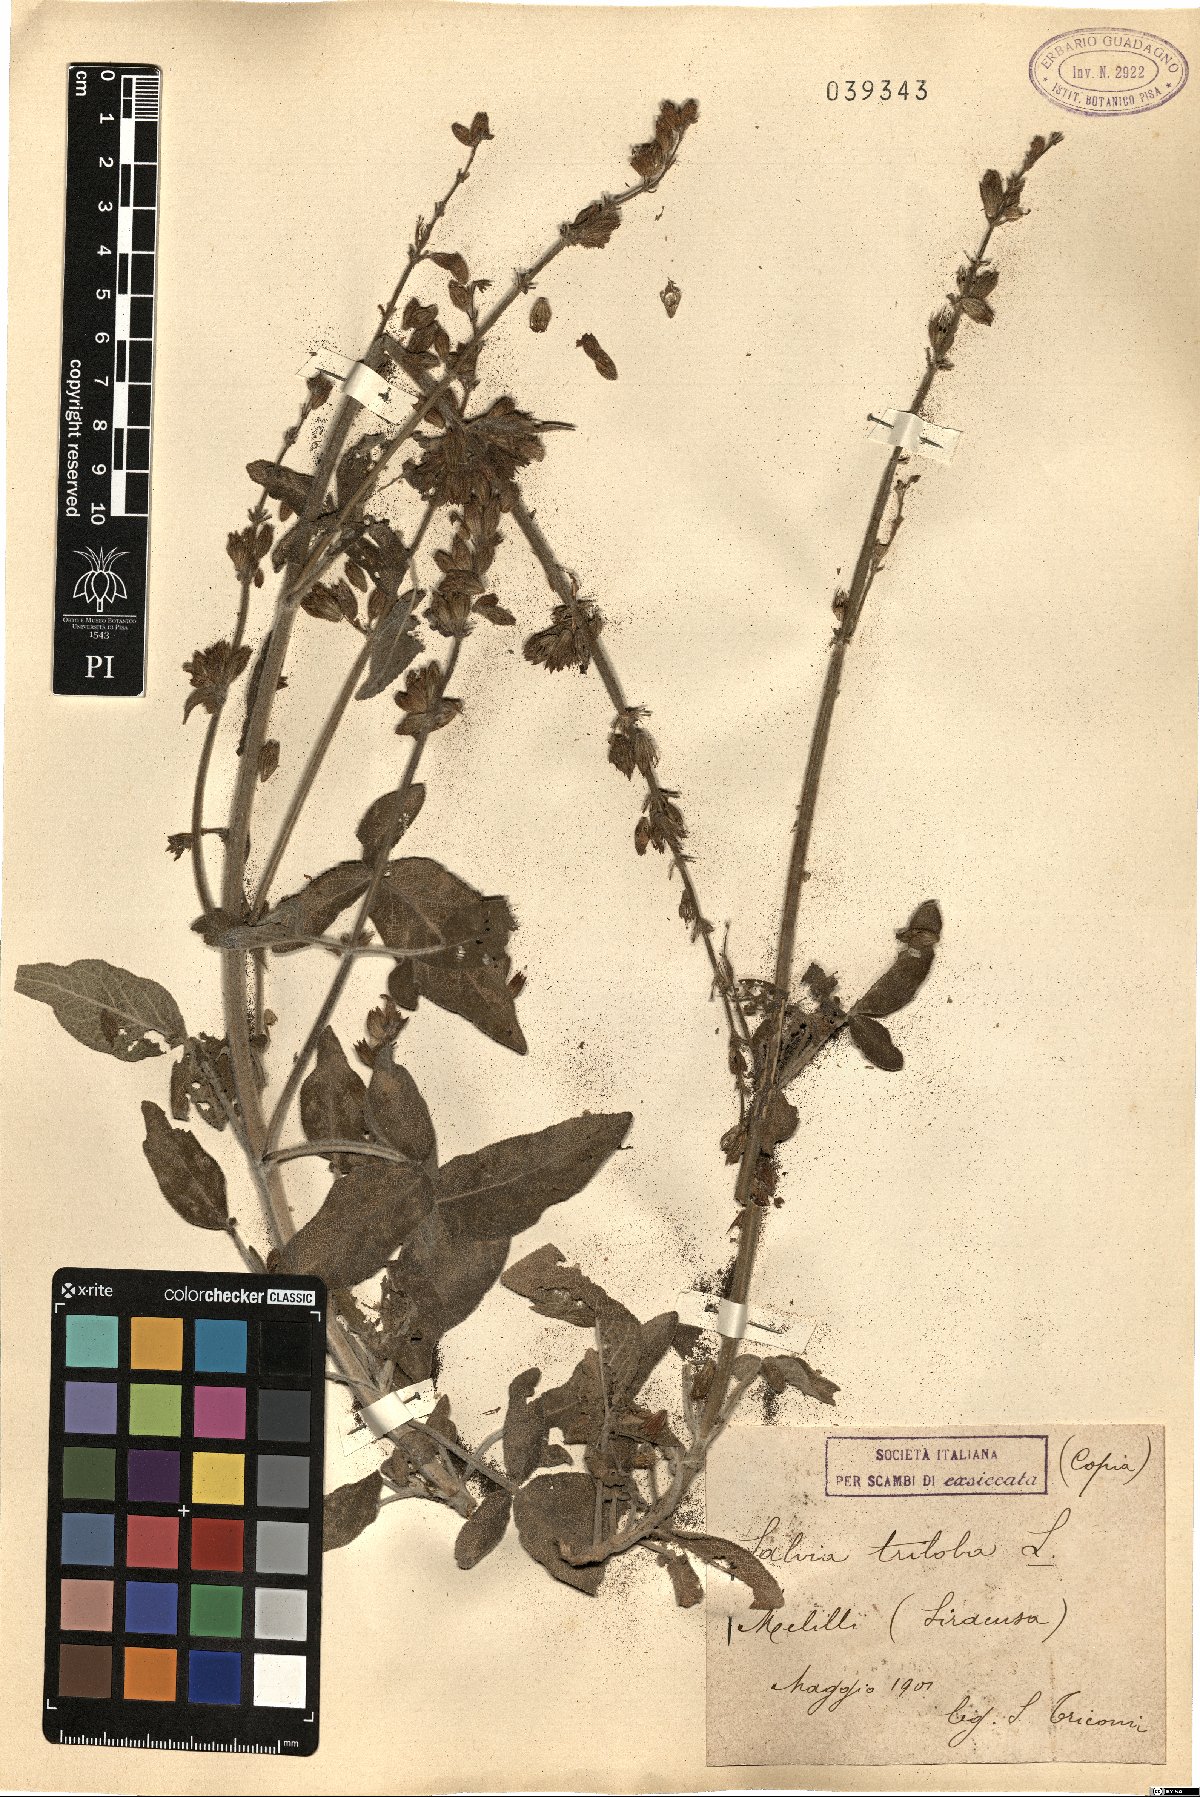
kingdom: Plantae
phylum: Tracheophyta
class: Magnoliopsida
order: Lamiales
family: Lamiaceae
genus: Salvia
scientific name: Salvia fruticosa
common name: Greek sage
